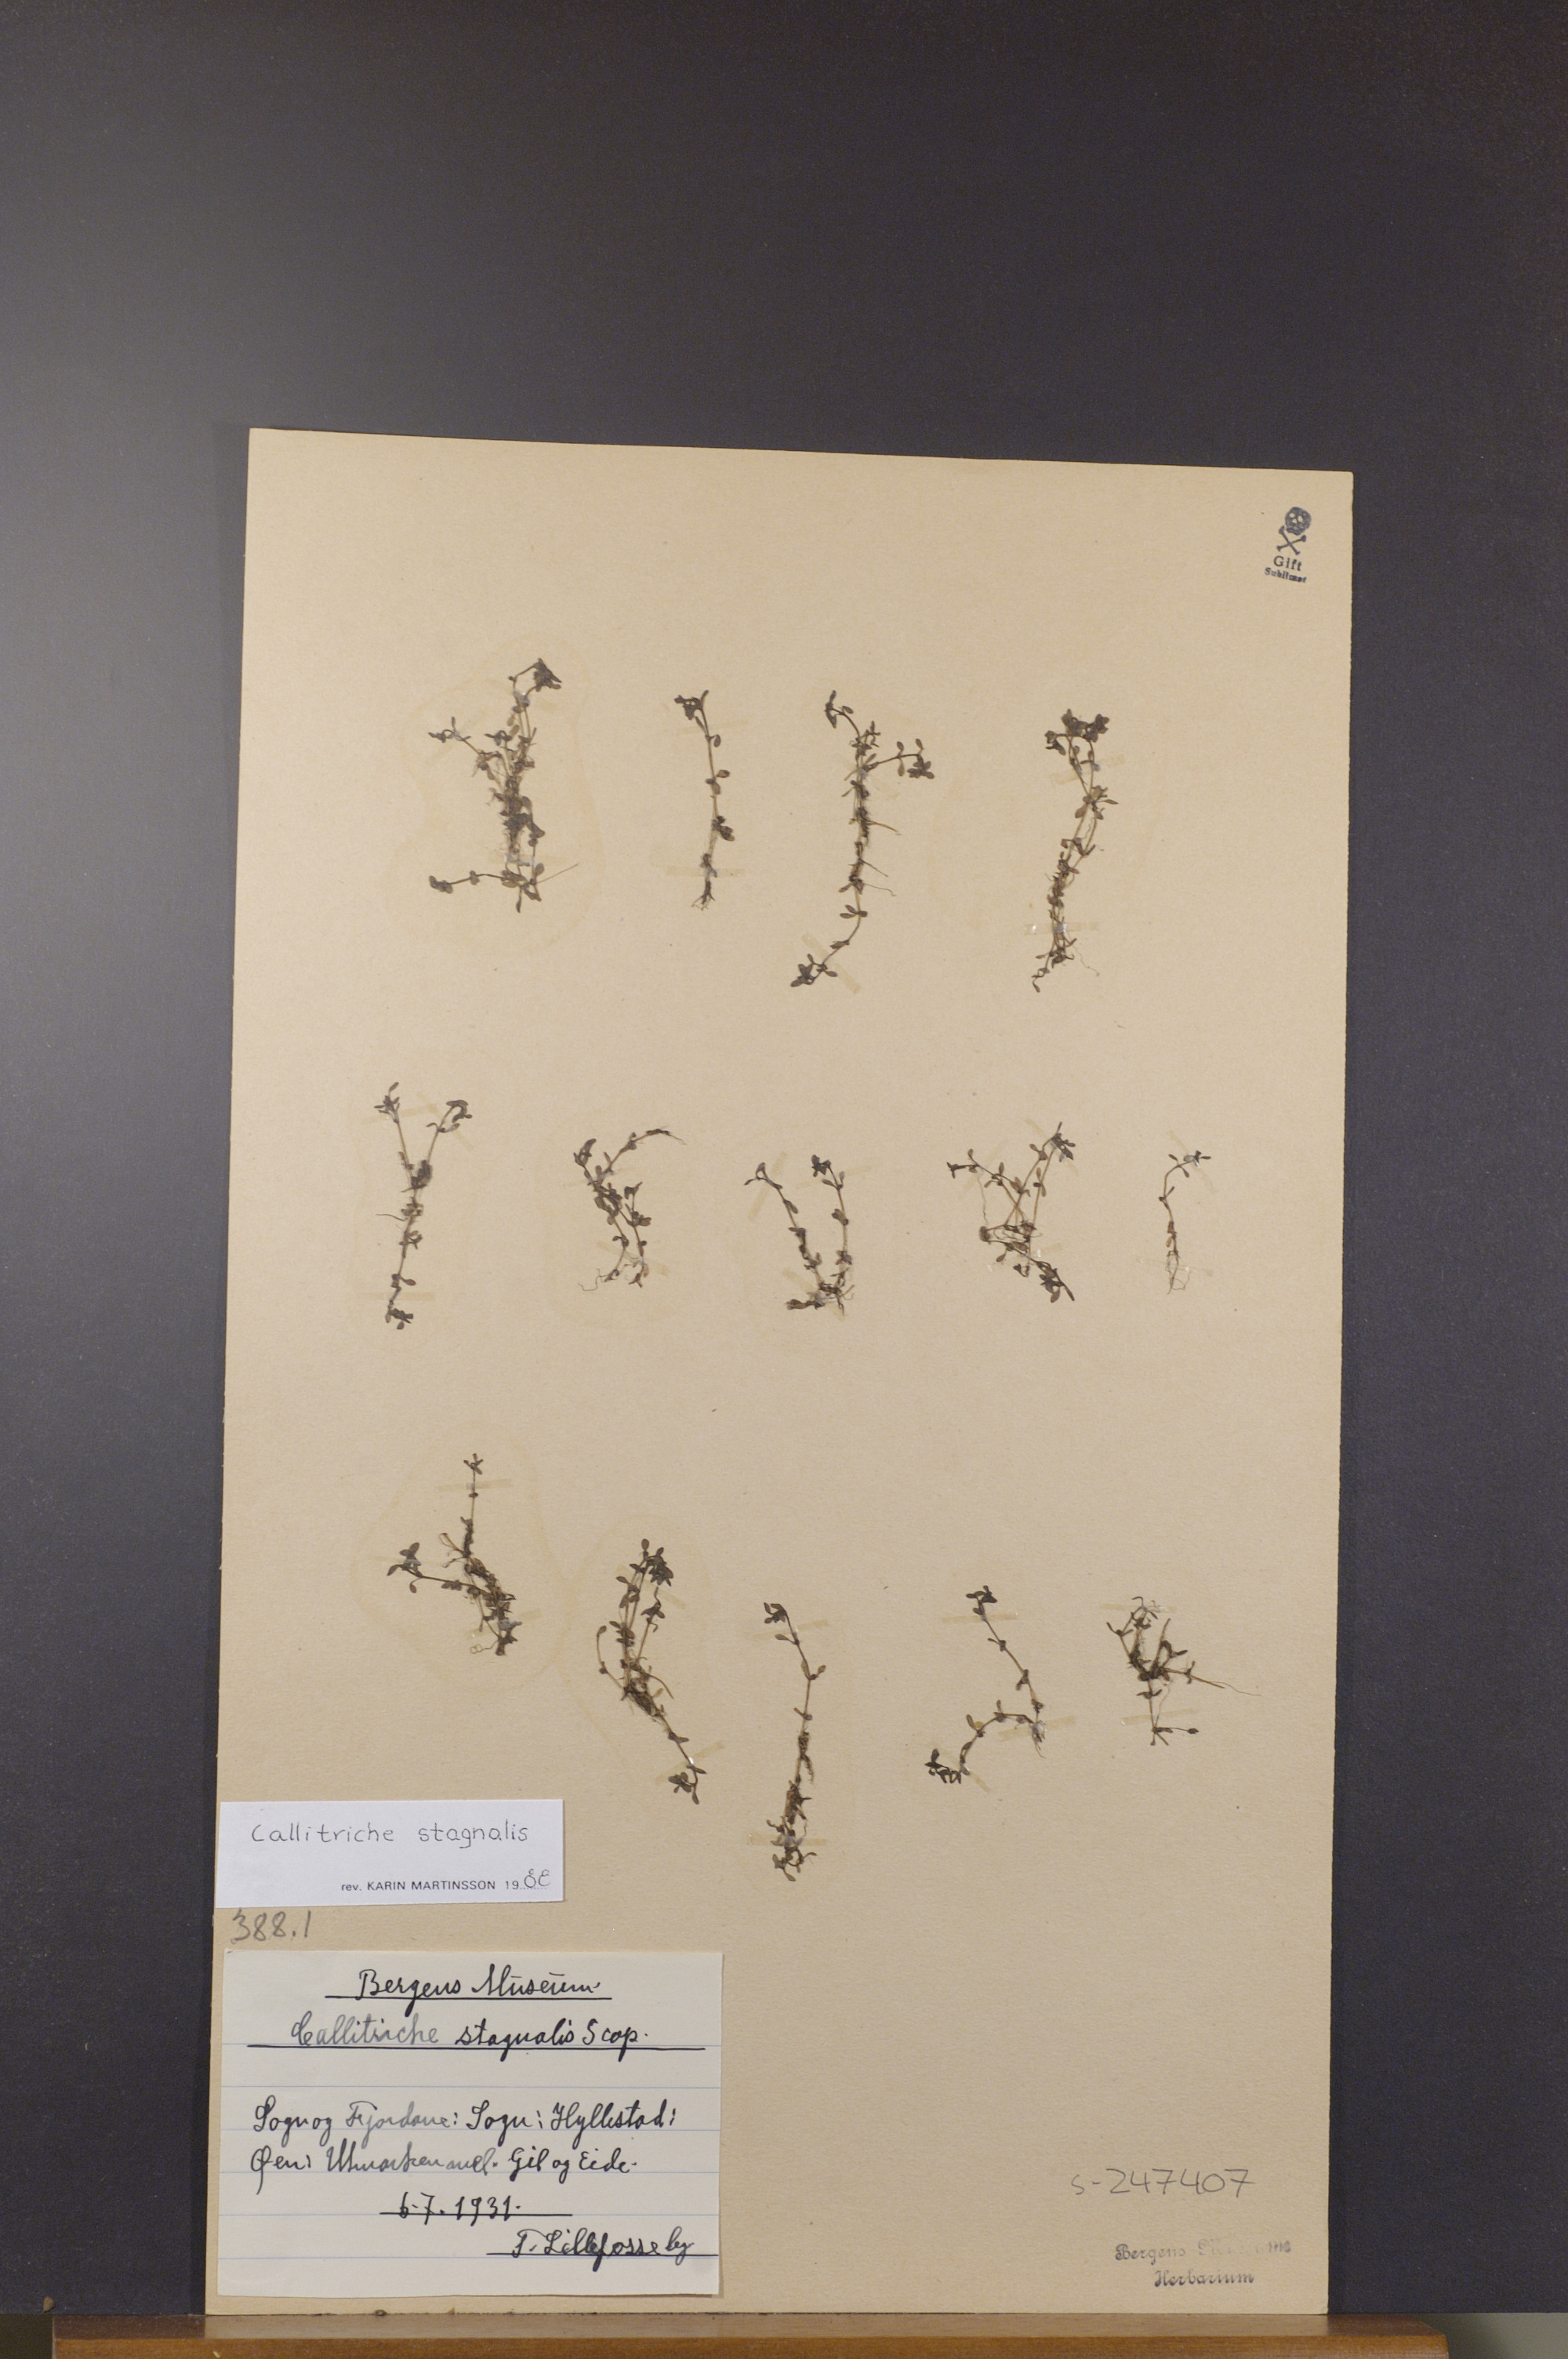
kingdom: Plantae
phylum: Tracheophyta
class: Magnoliopsida
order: Lamiales
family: Plantaginaceae
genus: Callitriche
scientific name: Callitriche stagnalis
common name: Common water-starwort
